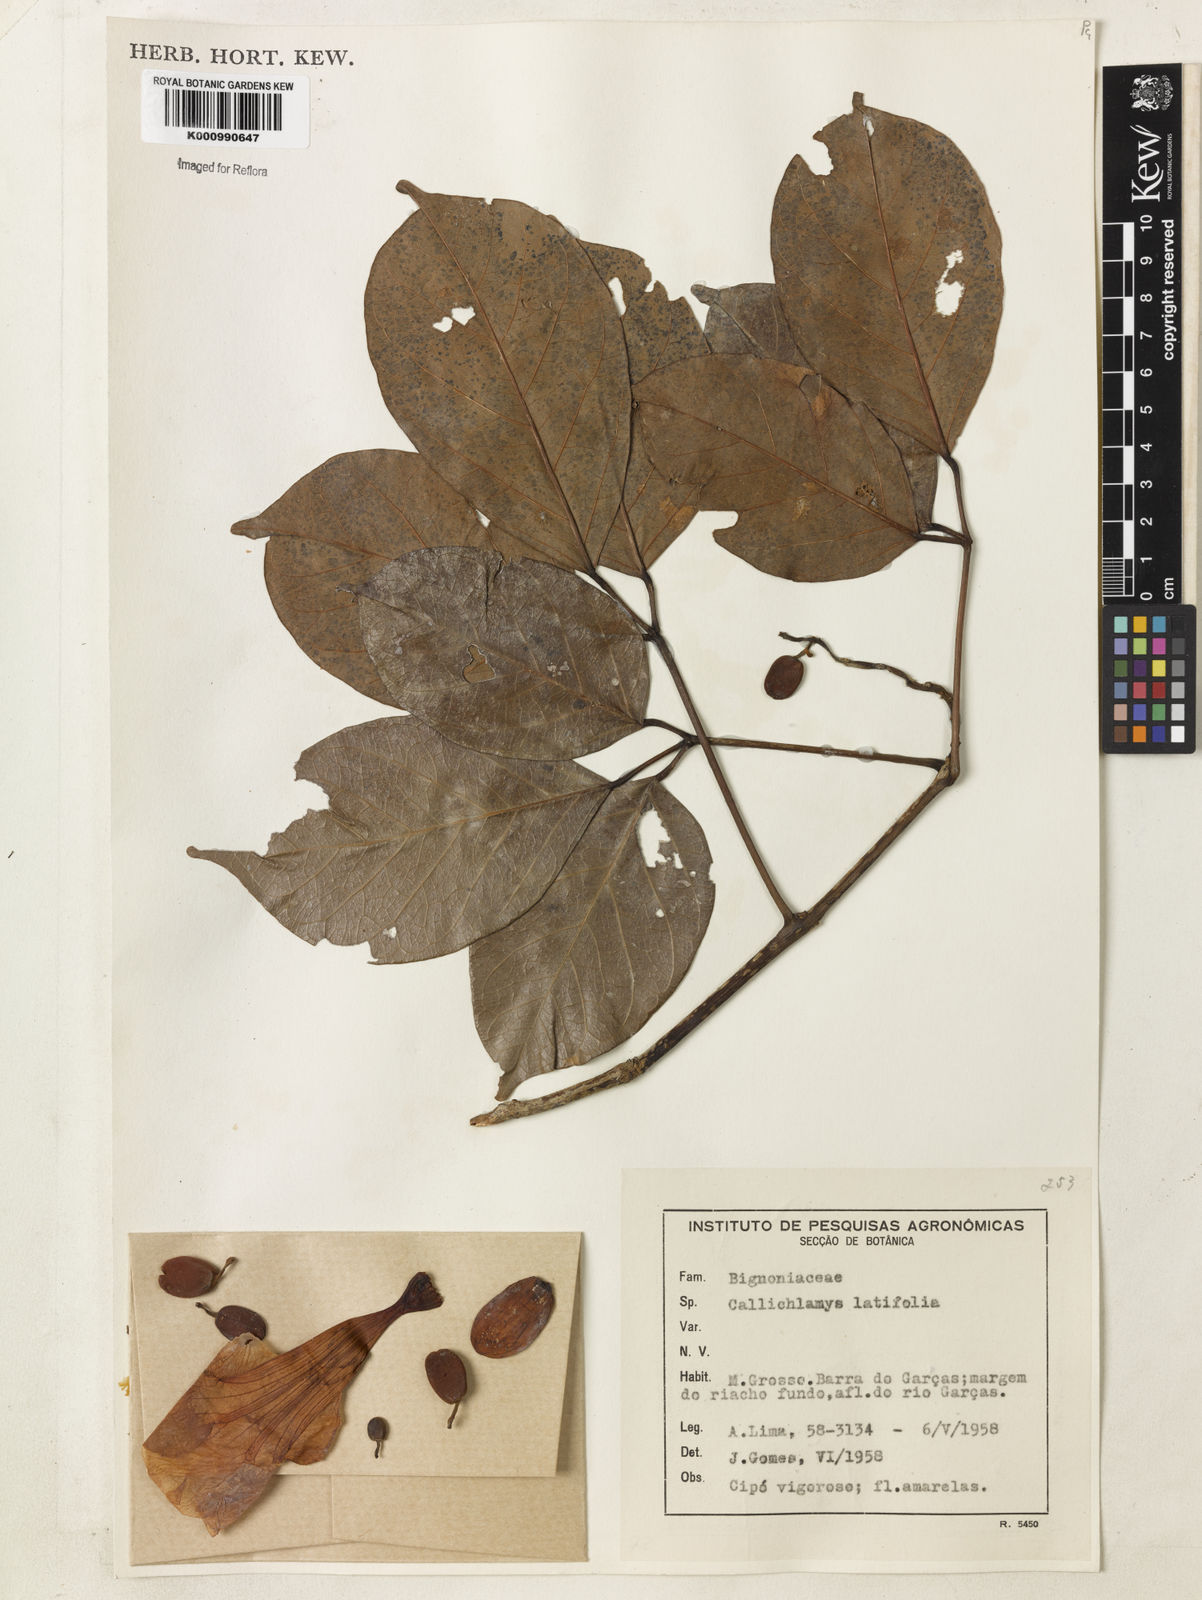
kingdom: Plantae
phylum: Tracheophyta
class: Magnoliopsida
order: Lamiales
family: Bignoniaceae
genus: Callichlamys
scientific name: Callichlamys latifolia
